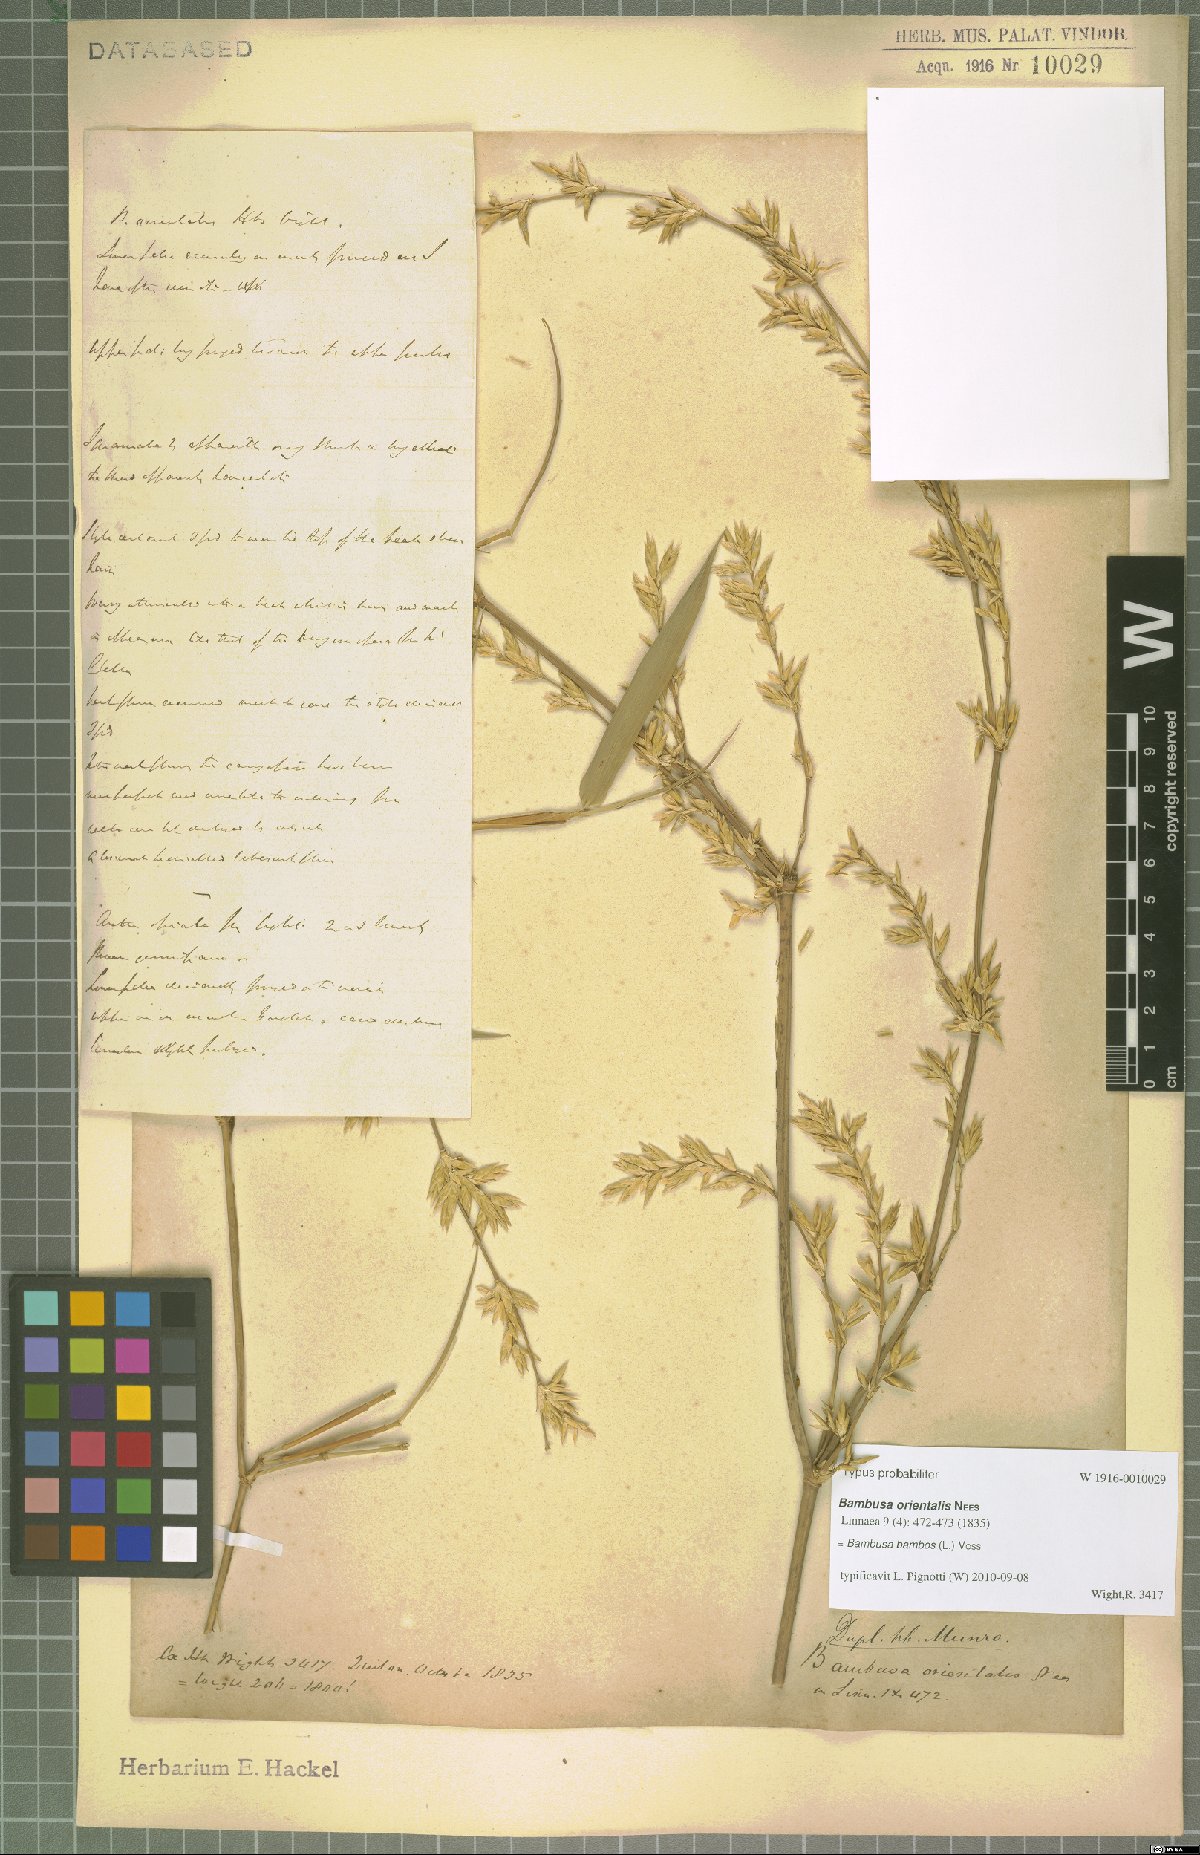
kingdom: Plantae
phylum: Tracheophyta
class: Liliopsida
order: Poales
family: Poaceae
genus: Bambusa
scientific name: Bambusa bambos
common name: Indian thorny bamboo
